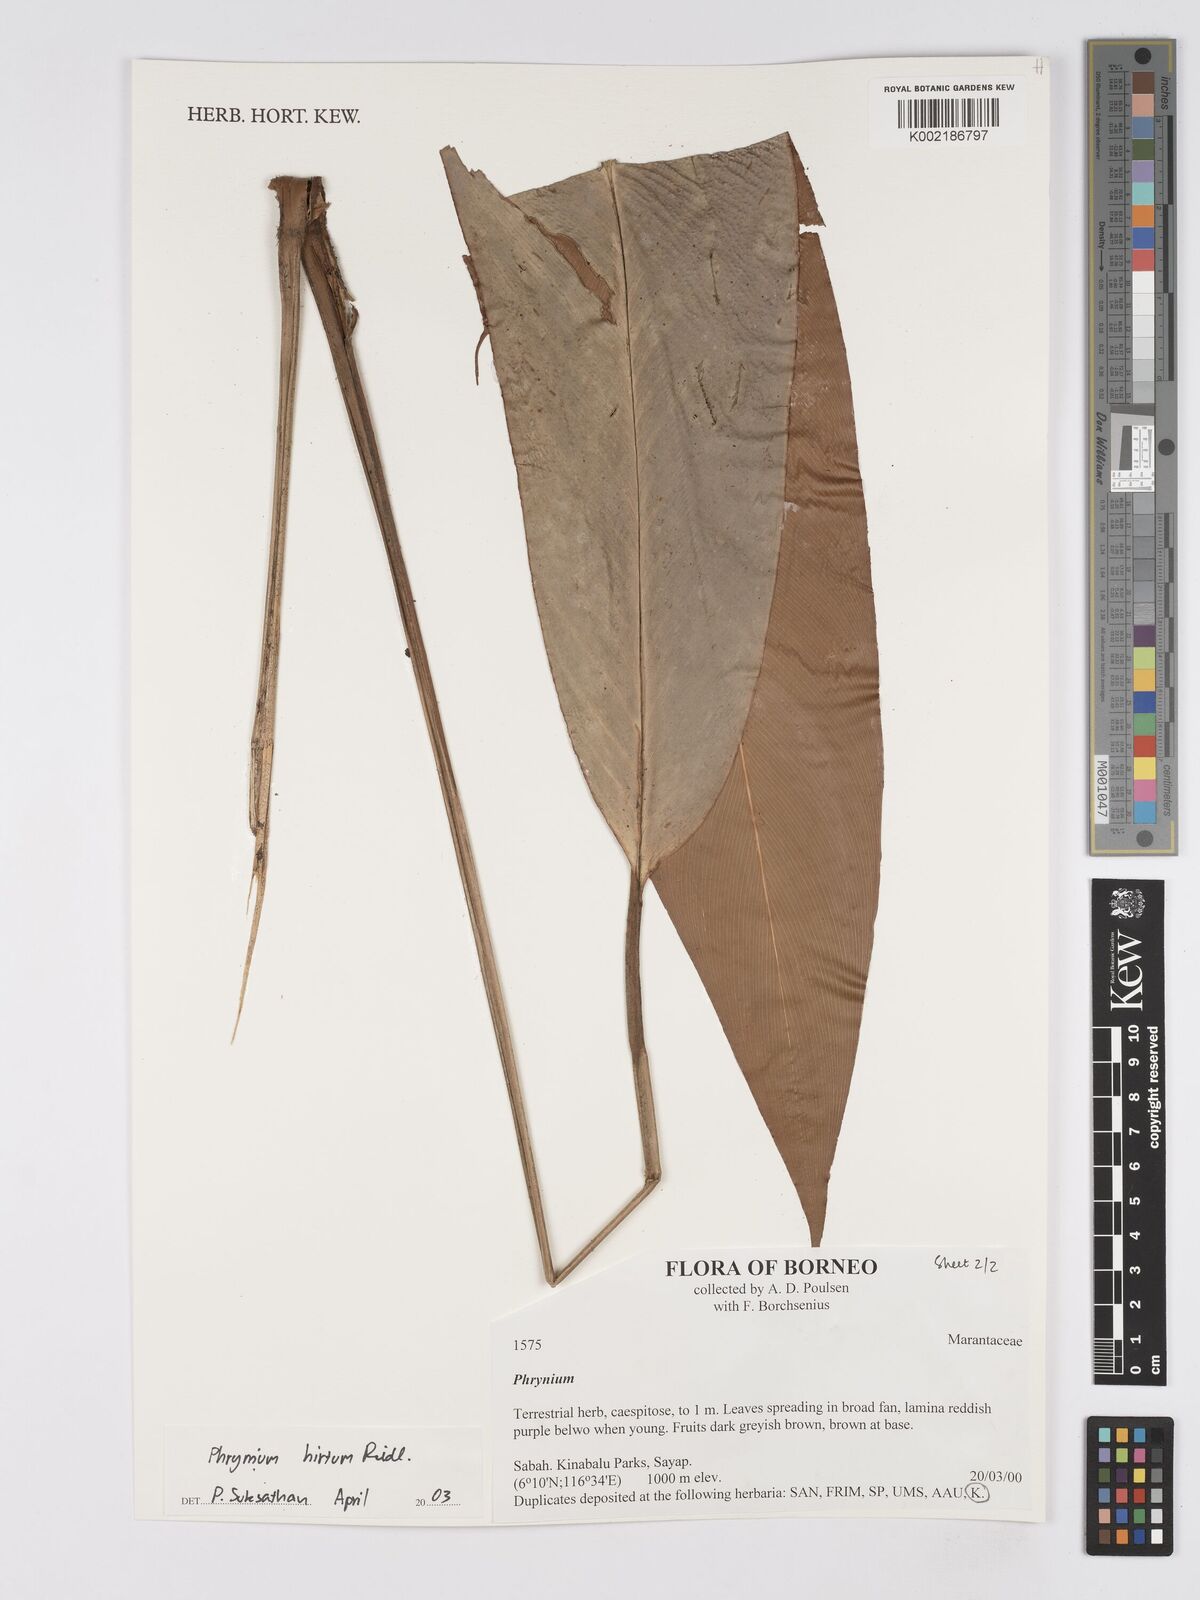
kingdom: Plantae
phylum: Tracheophyta
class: Liliopsida
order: Zingiberales
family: Marantaceae
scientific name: Marantaceae
